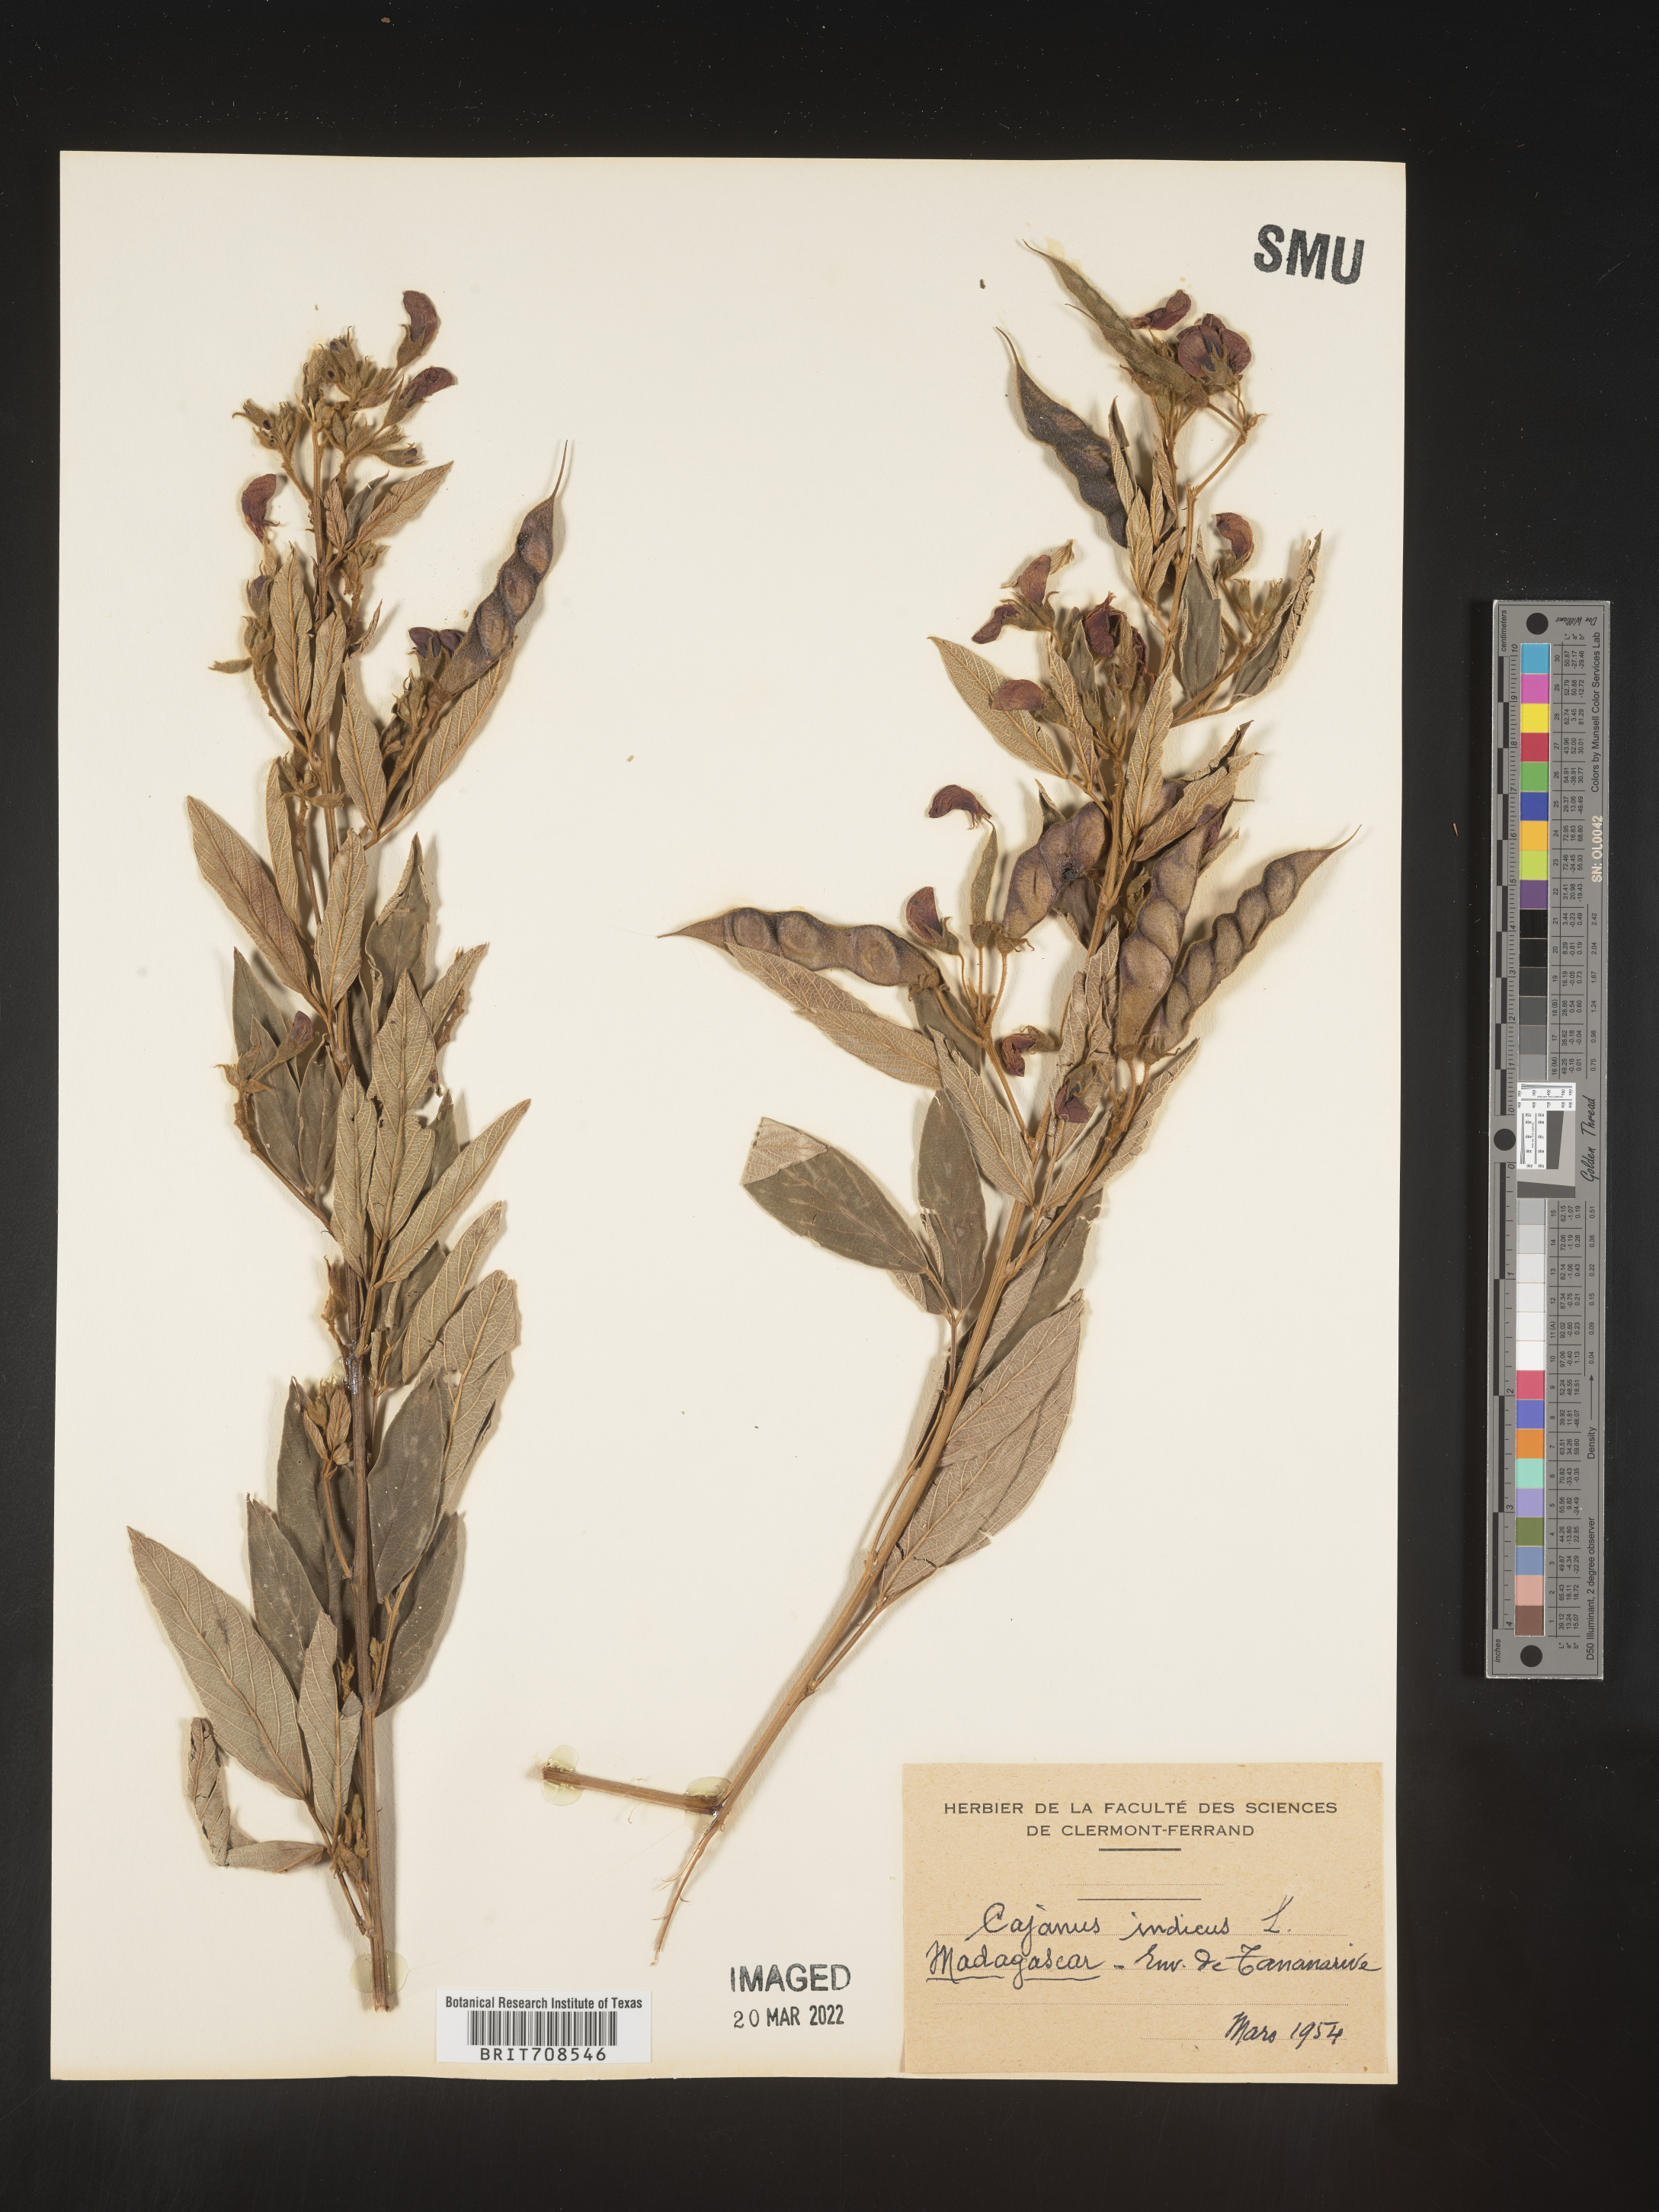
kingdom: Plantae
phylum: Tracheophyta
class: Magnoliopsida
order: Fabales
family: Fabaceae
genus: Cajanus
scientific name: Cajanus
